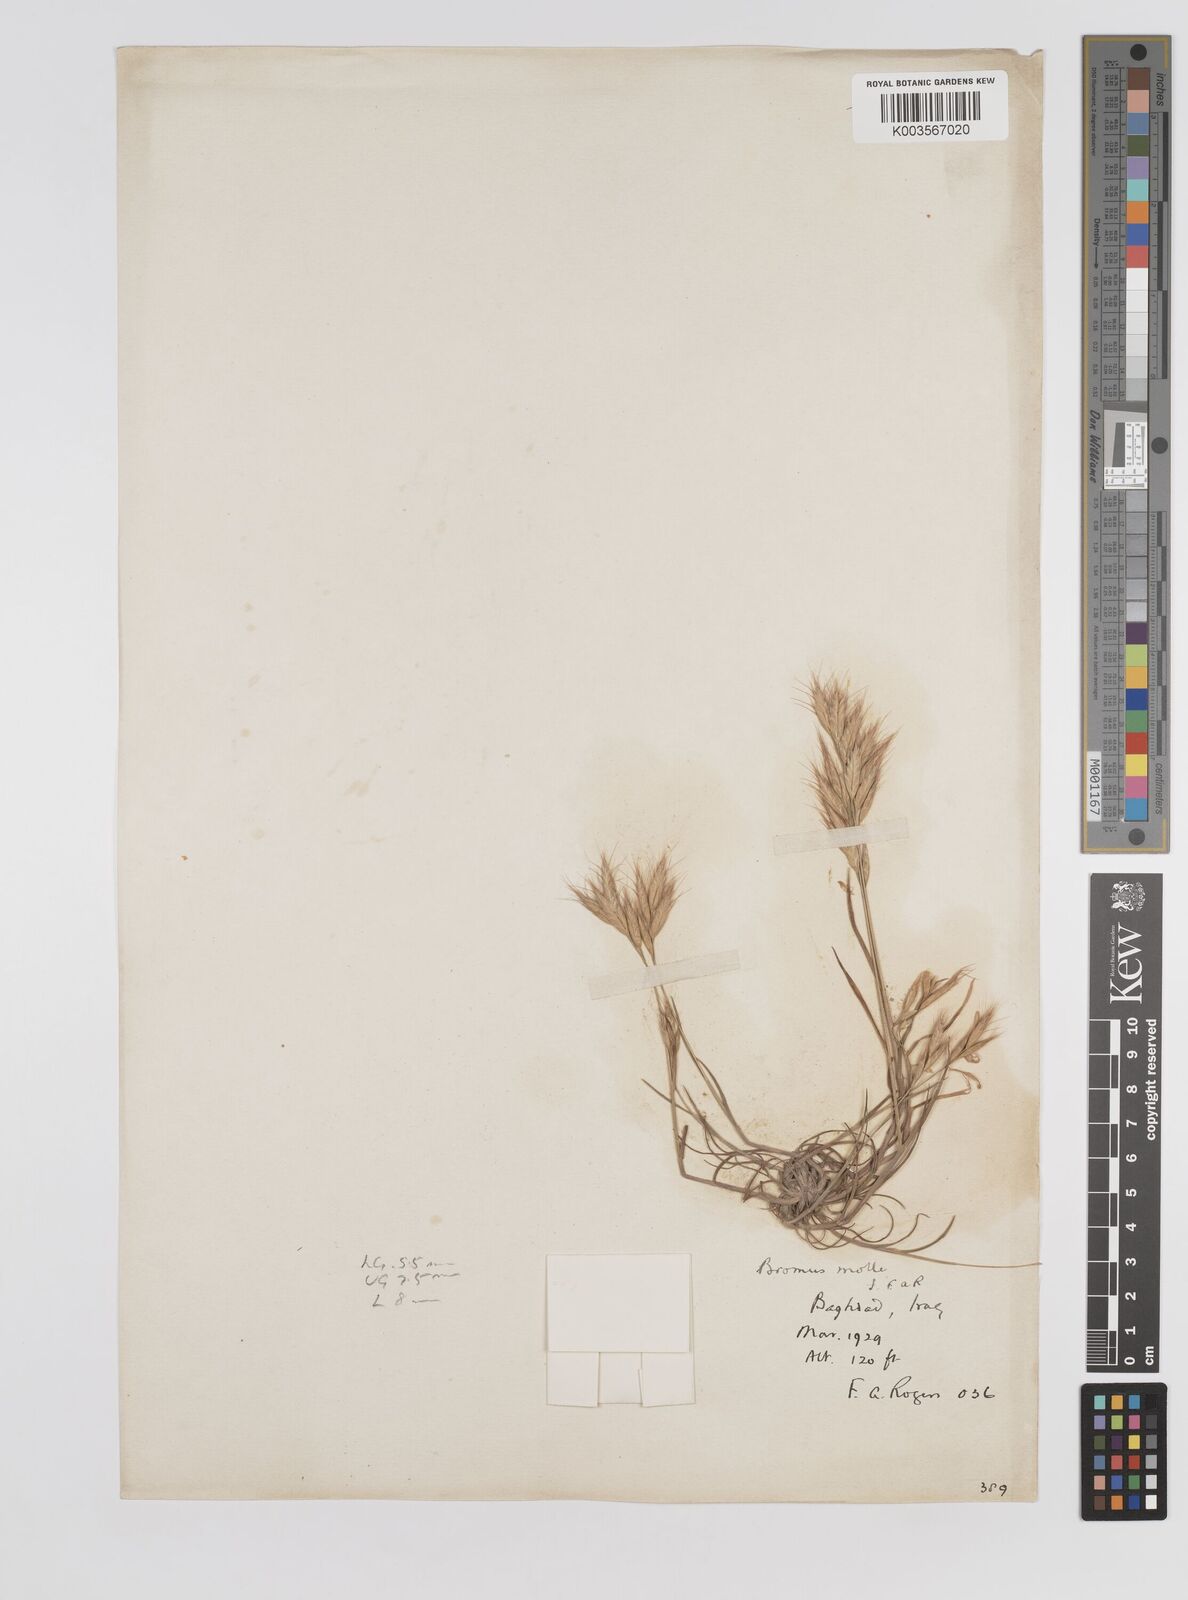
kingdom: Plantae
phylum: Tracheophyta
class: Liliopsida
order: Poales
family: Poaceae
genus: Bromus
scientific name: Bromus danthoniae
